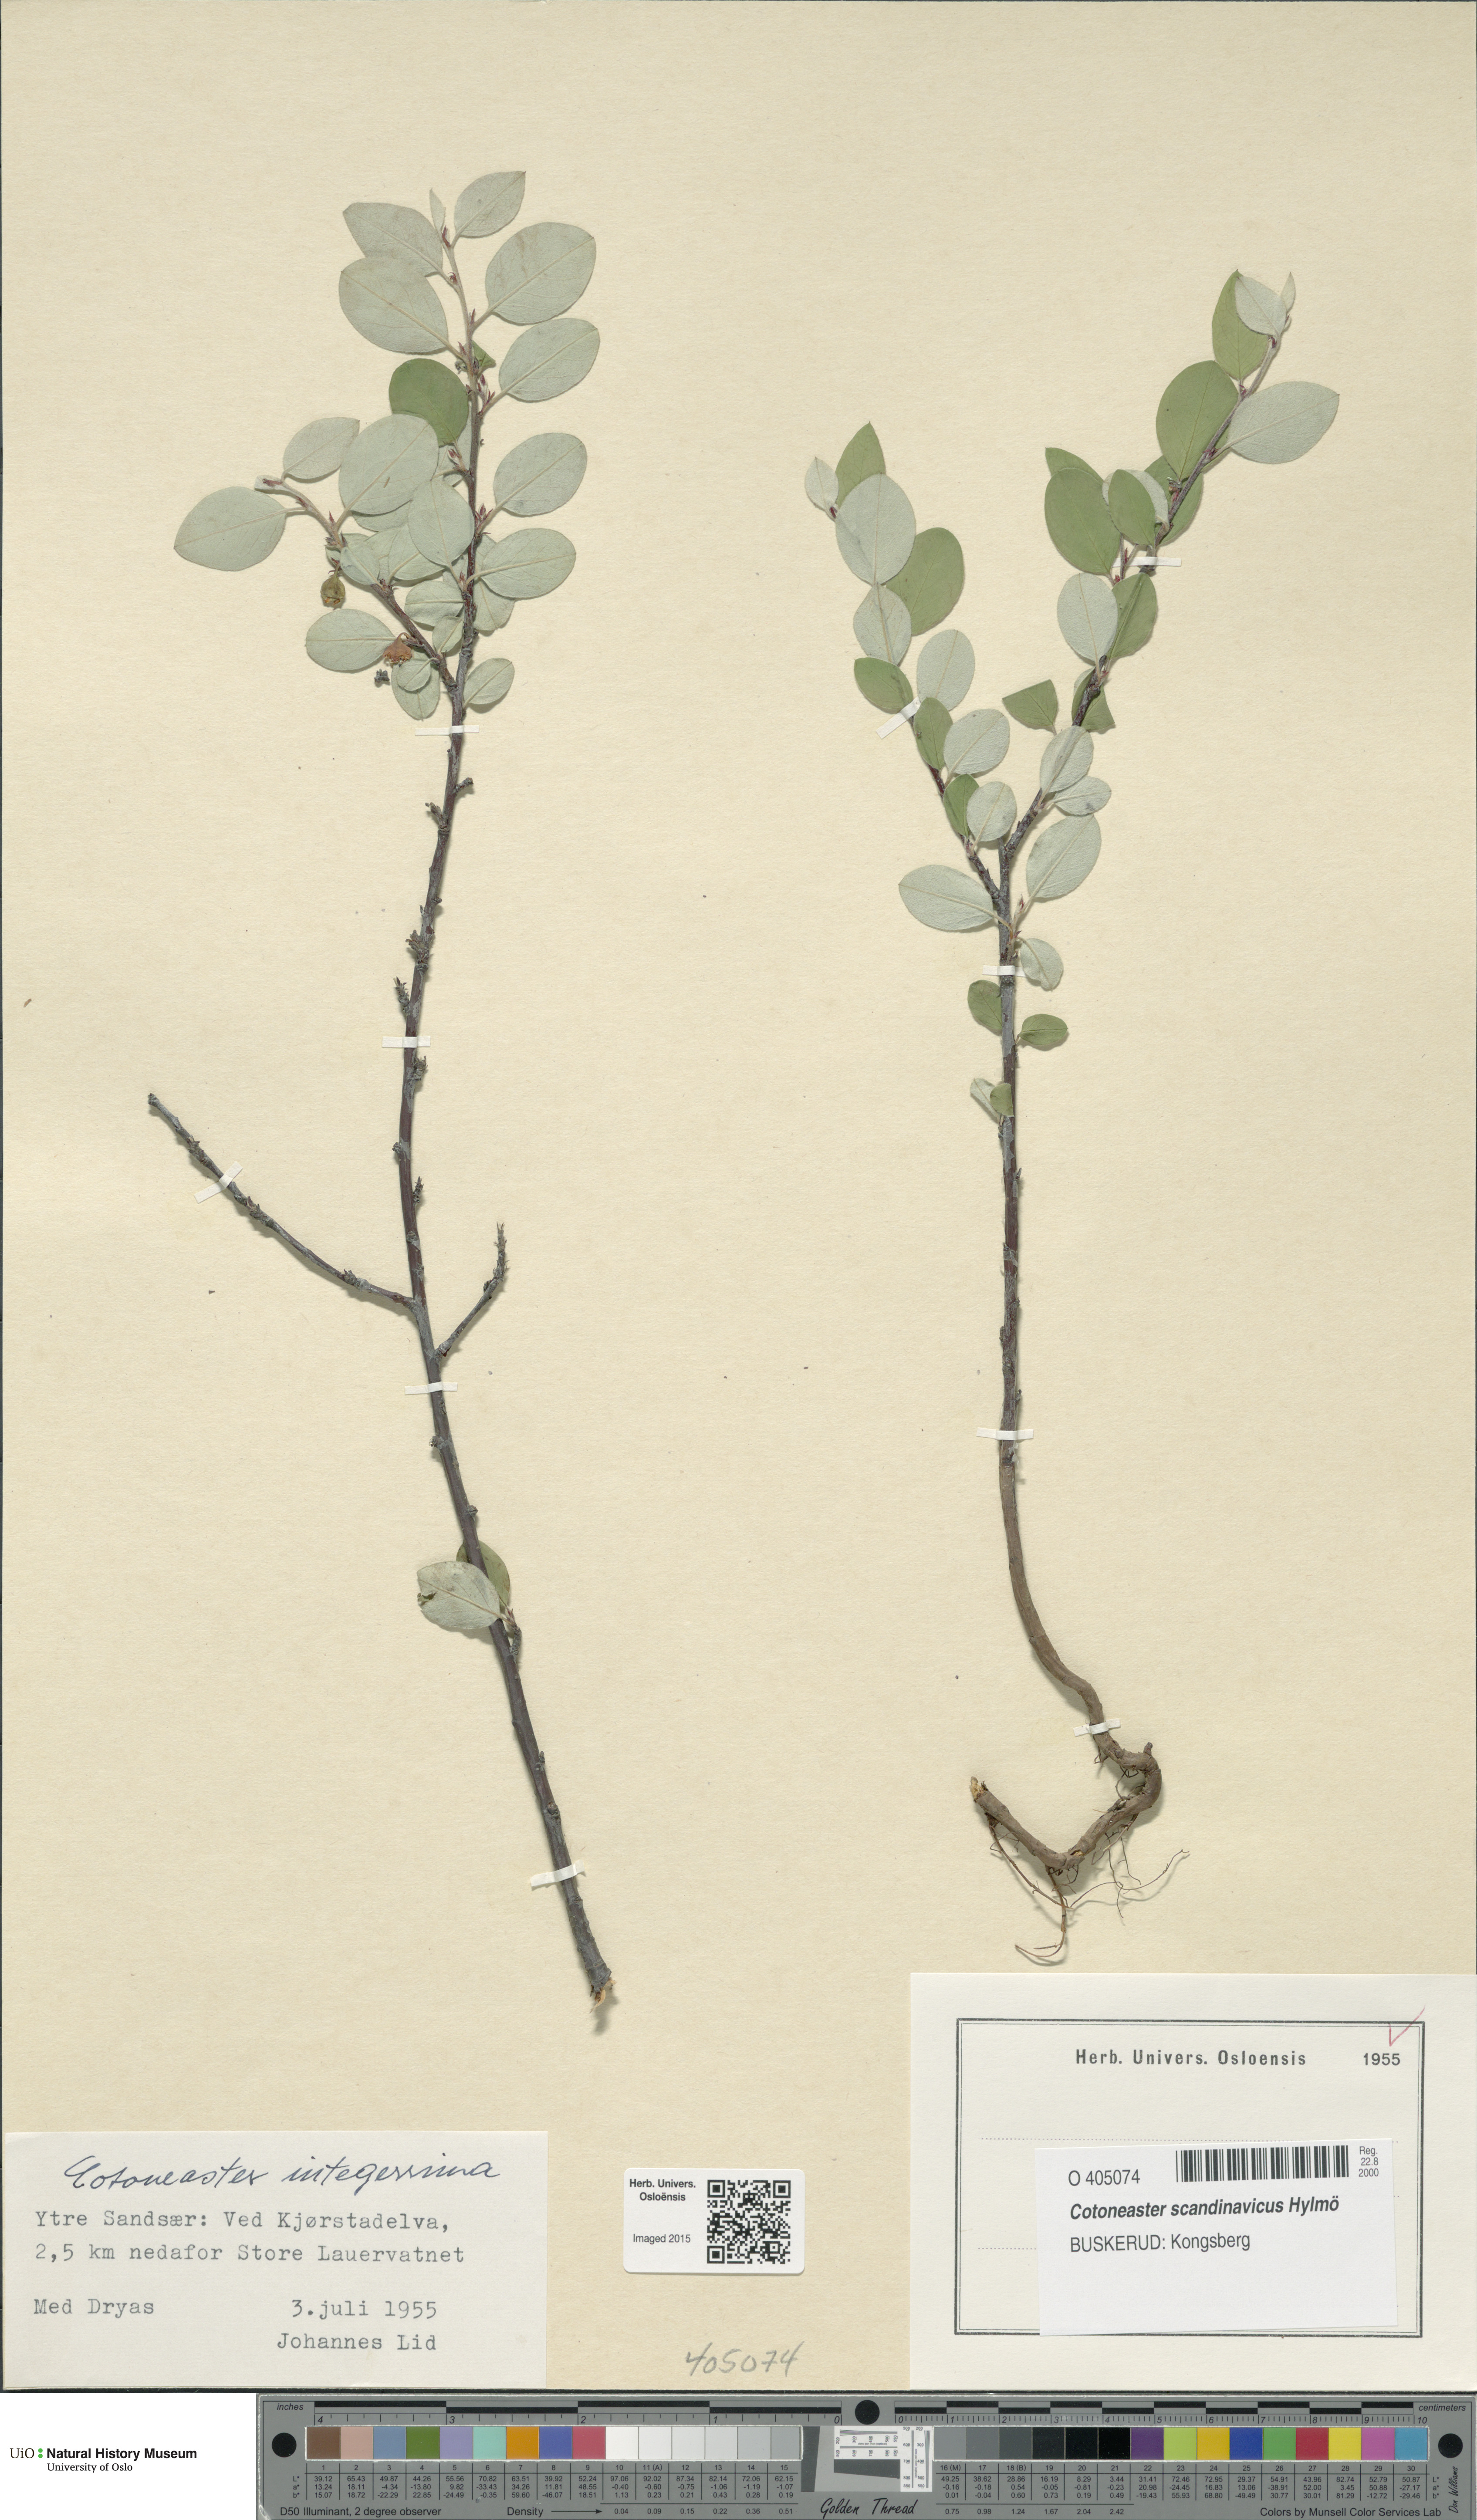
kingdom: Plantae
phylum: Tracheophyta
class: Magnoliopsida
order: Rosales
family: Rosaceae
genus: Cotoneaster
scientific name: Cotoneaster integerrimus
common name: Wild cotoneaster
